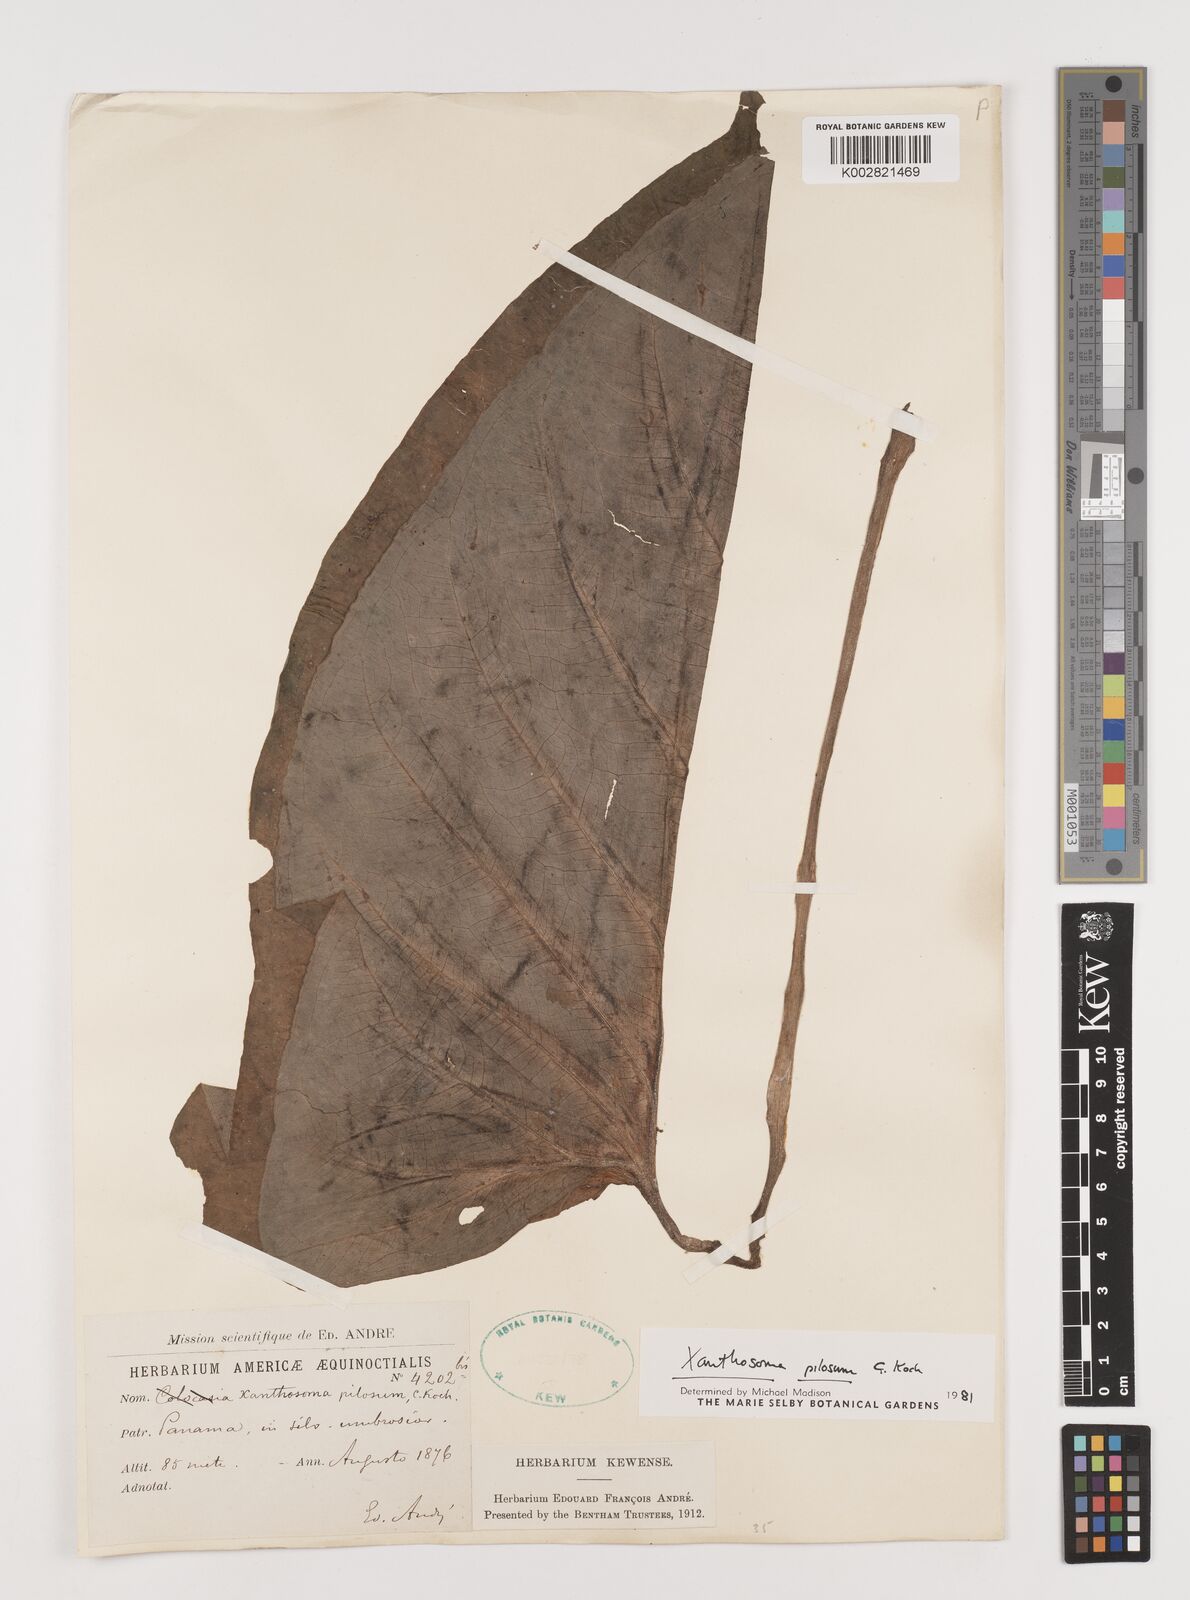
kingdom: Plantae
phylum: Tracheophyta
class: Liliopsida
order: Alismatales
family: Araceae
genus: Xanthosoma
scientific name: Xanthosoma mexicanum
